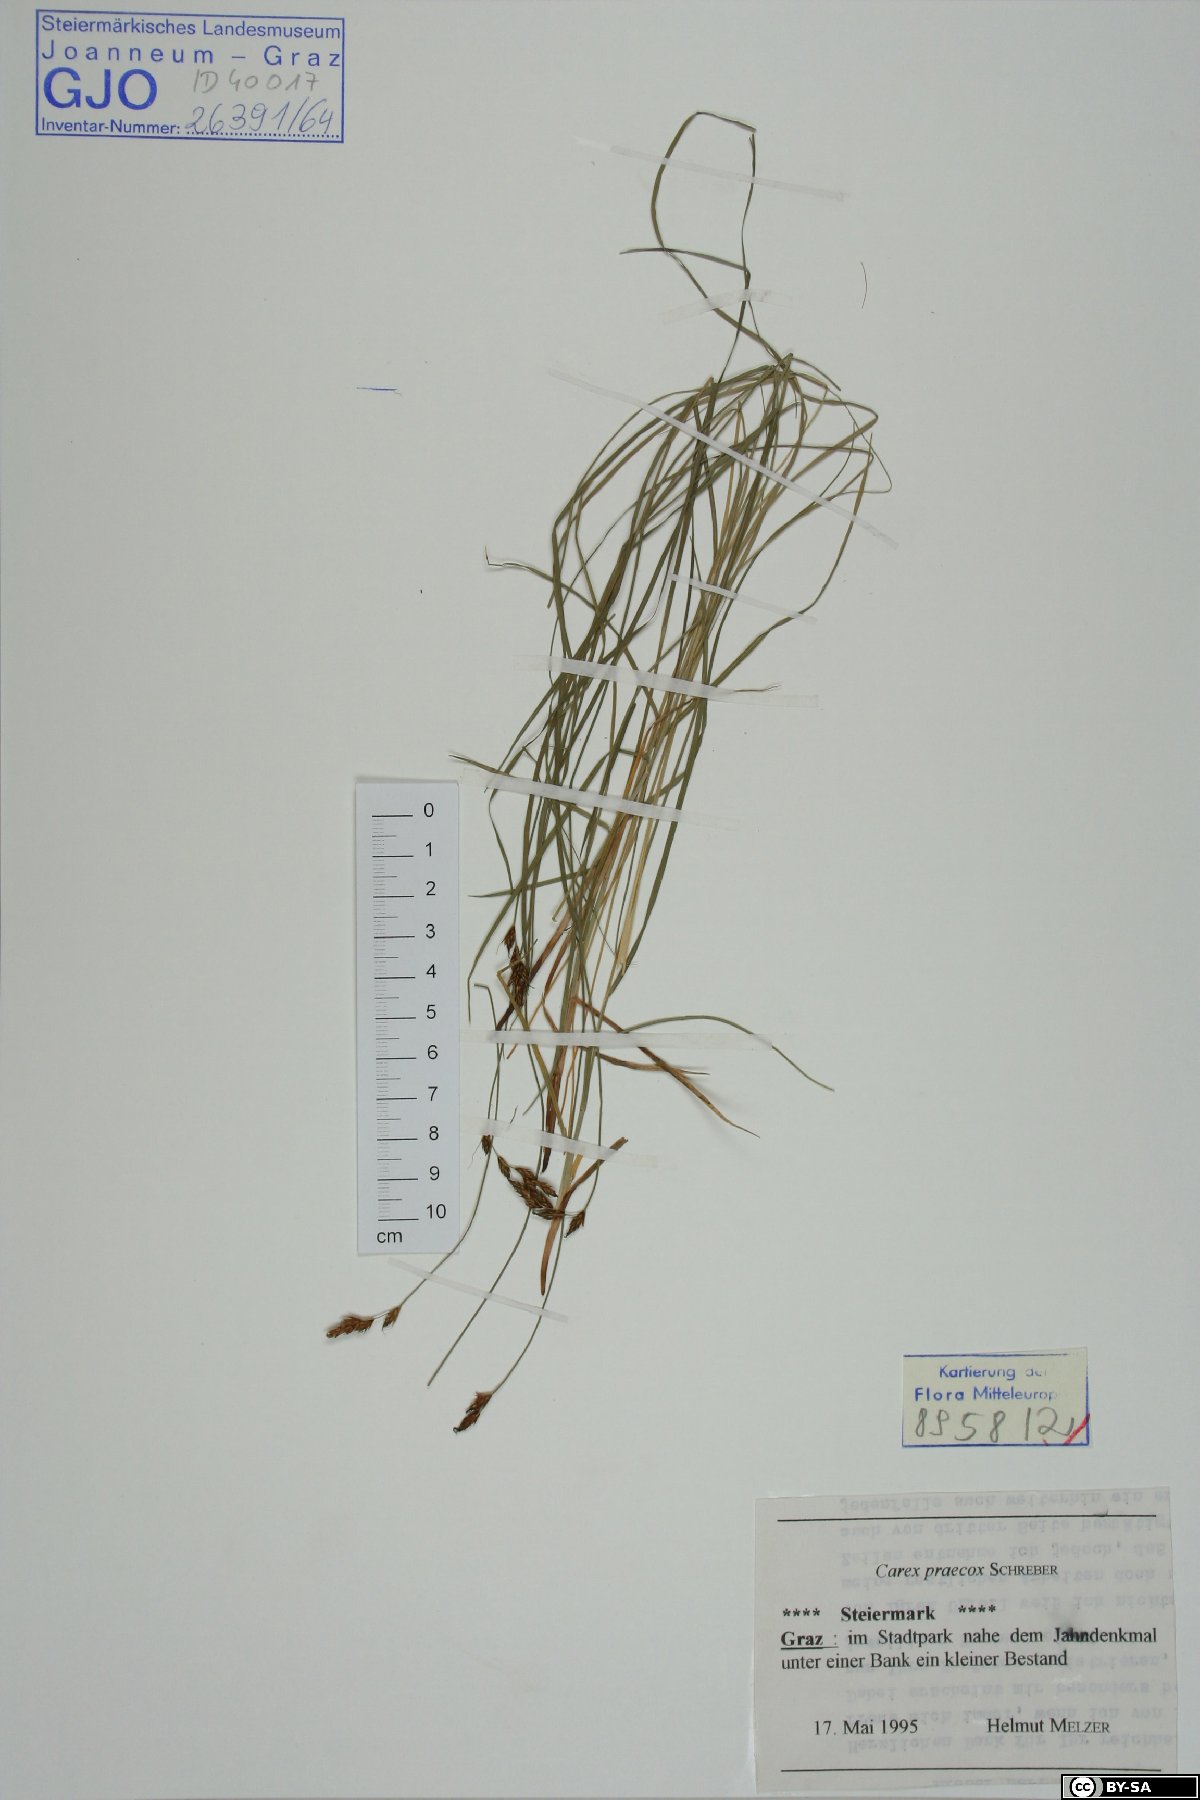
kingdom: Plantae
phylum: Tracheophyta
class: Liliopsida
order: Poales
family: Cyperaceae
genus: Carex
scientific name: Carex praecox
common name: Early sedge
